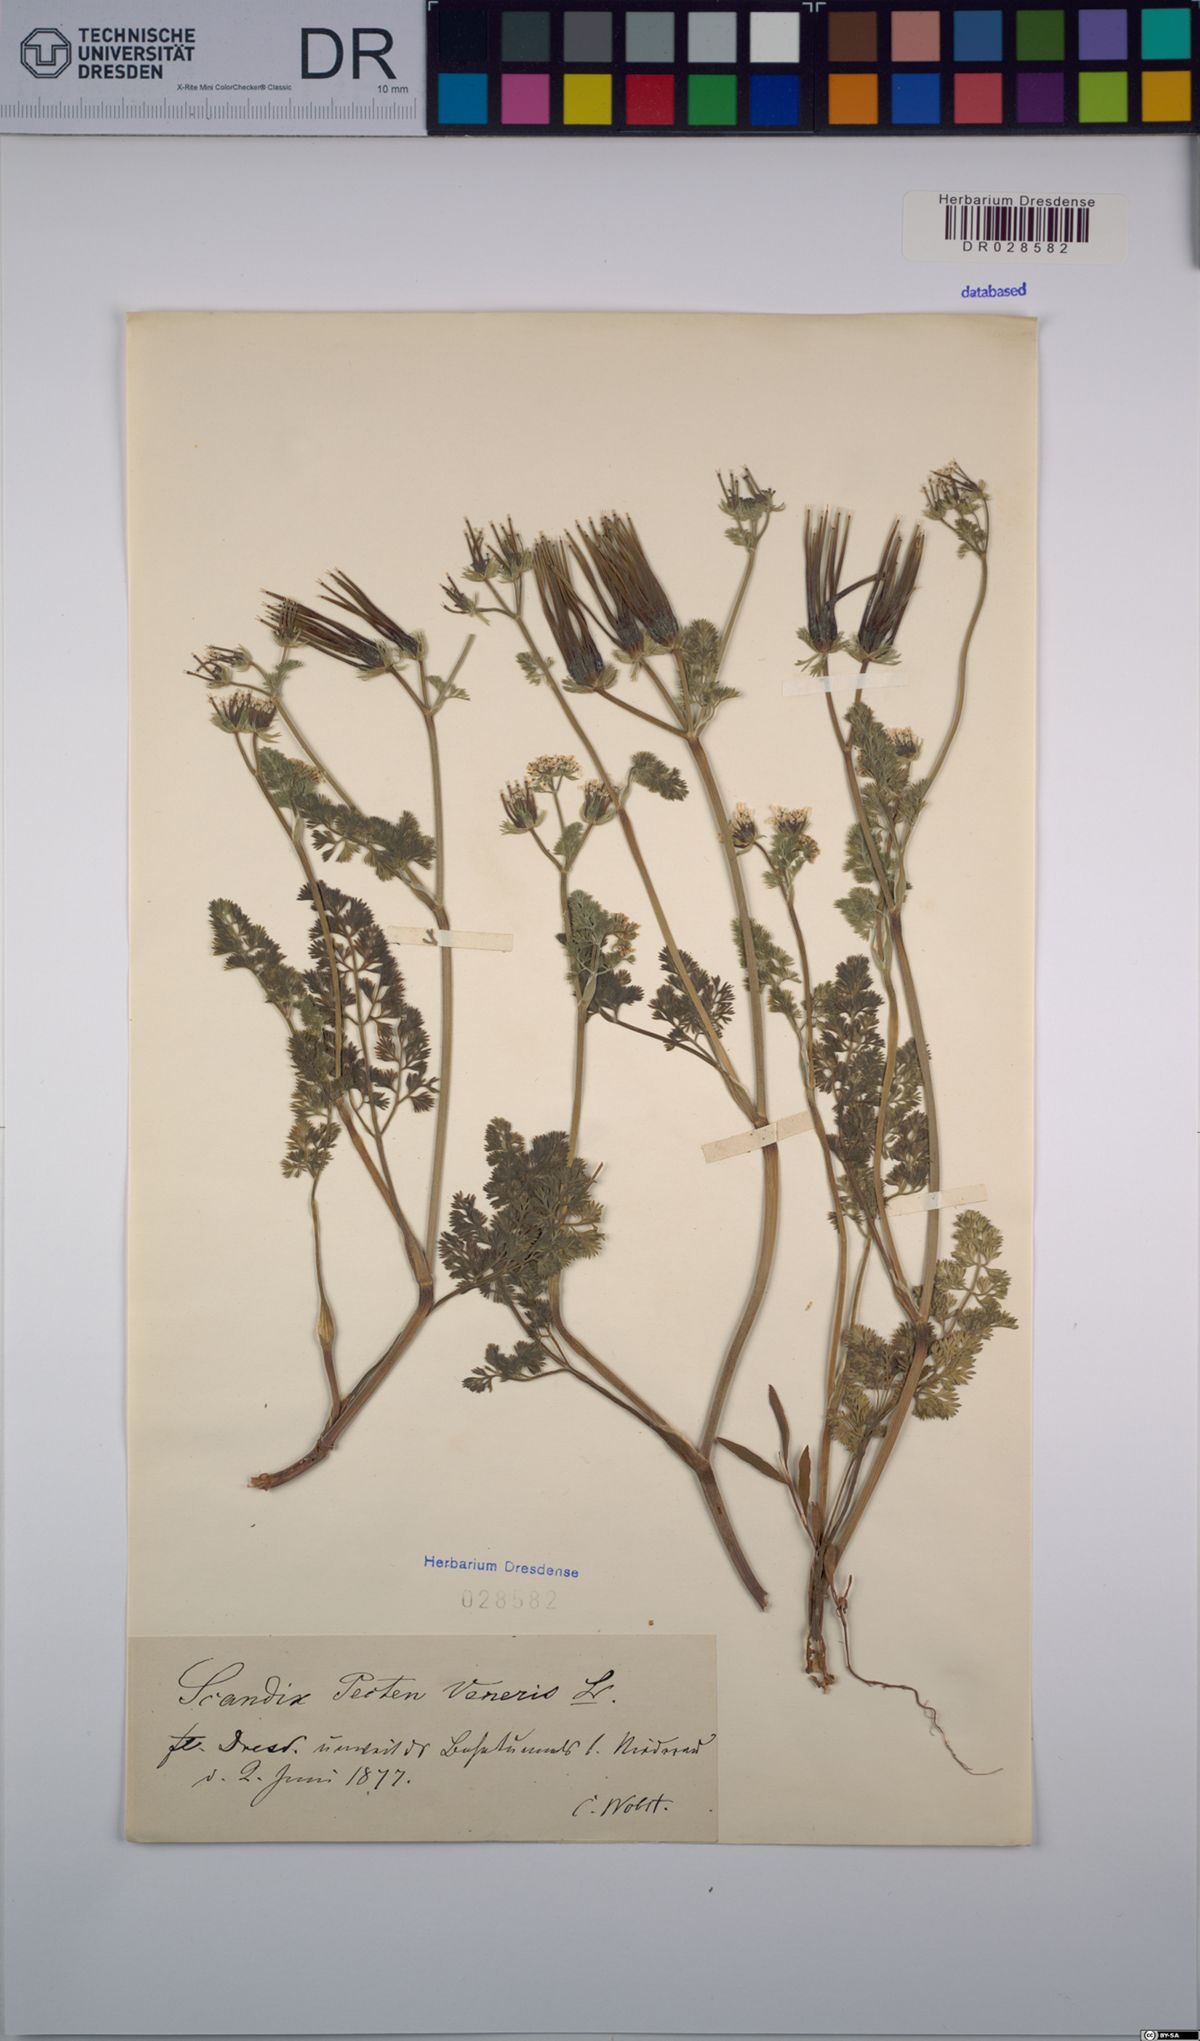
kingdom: Plantae
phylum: Tracheophyta
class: Magnoliopsida
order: Apiales
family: Apiaceae
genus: Scandix
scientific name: Scandix pecten-veneris
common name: Shepherd's-needle
